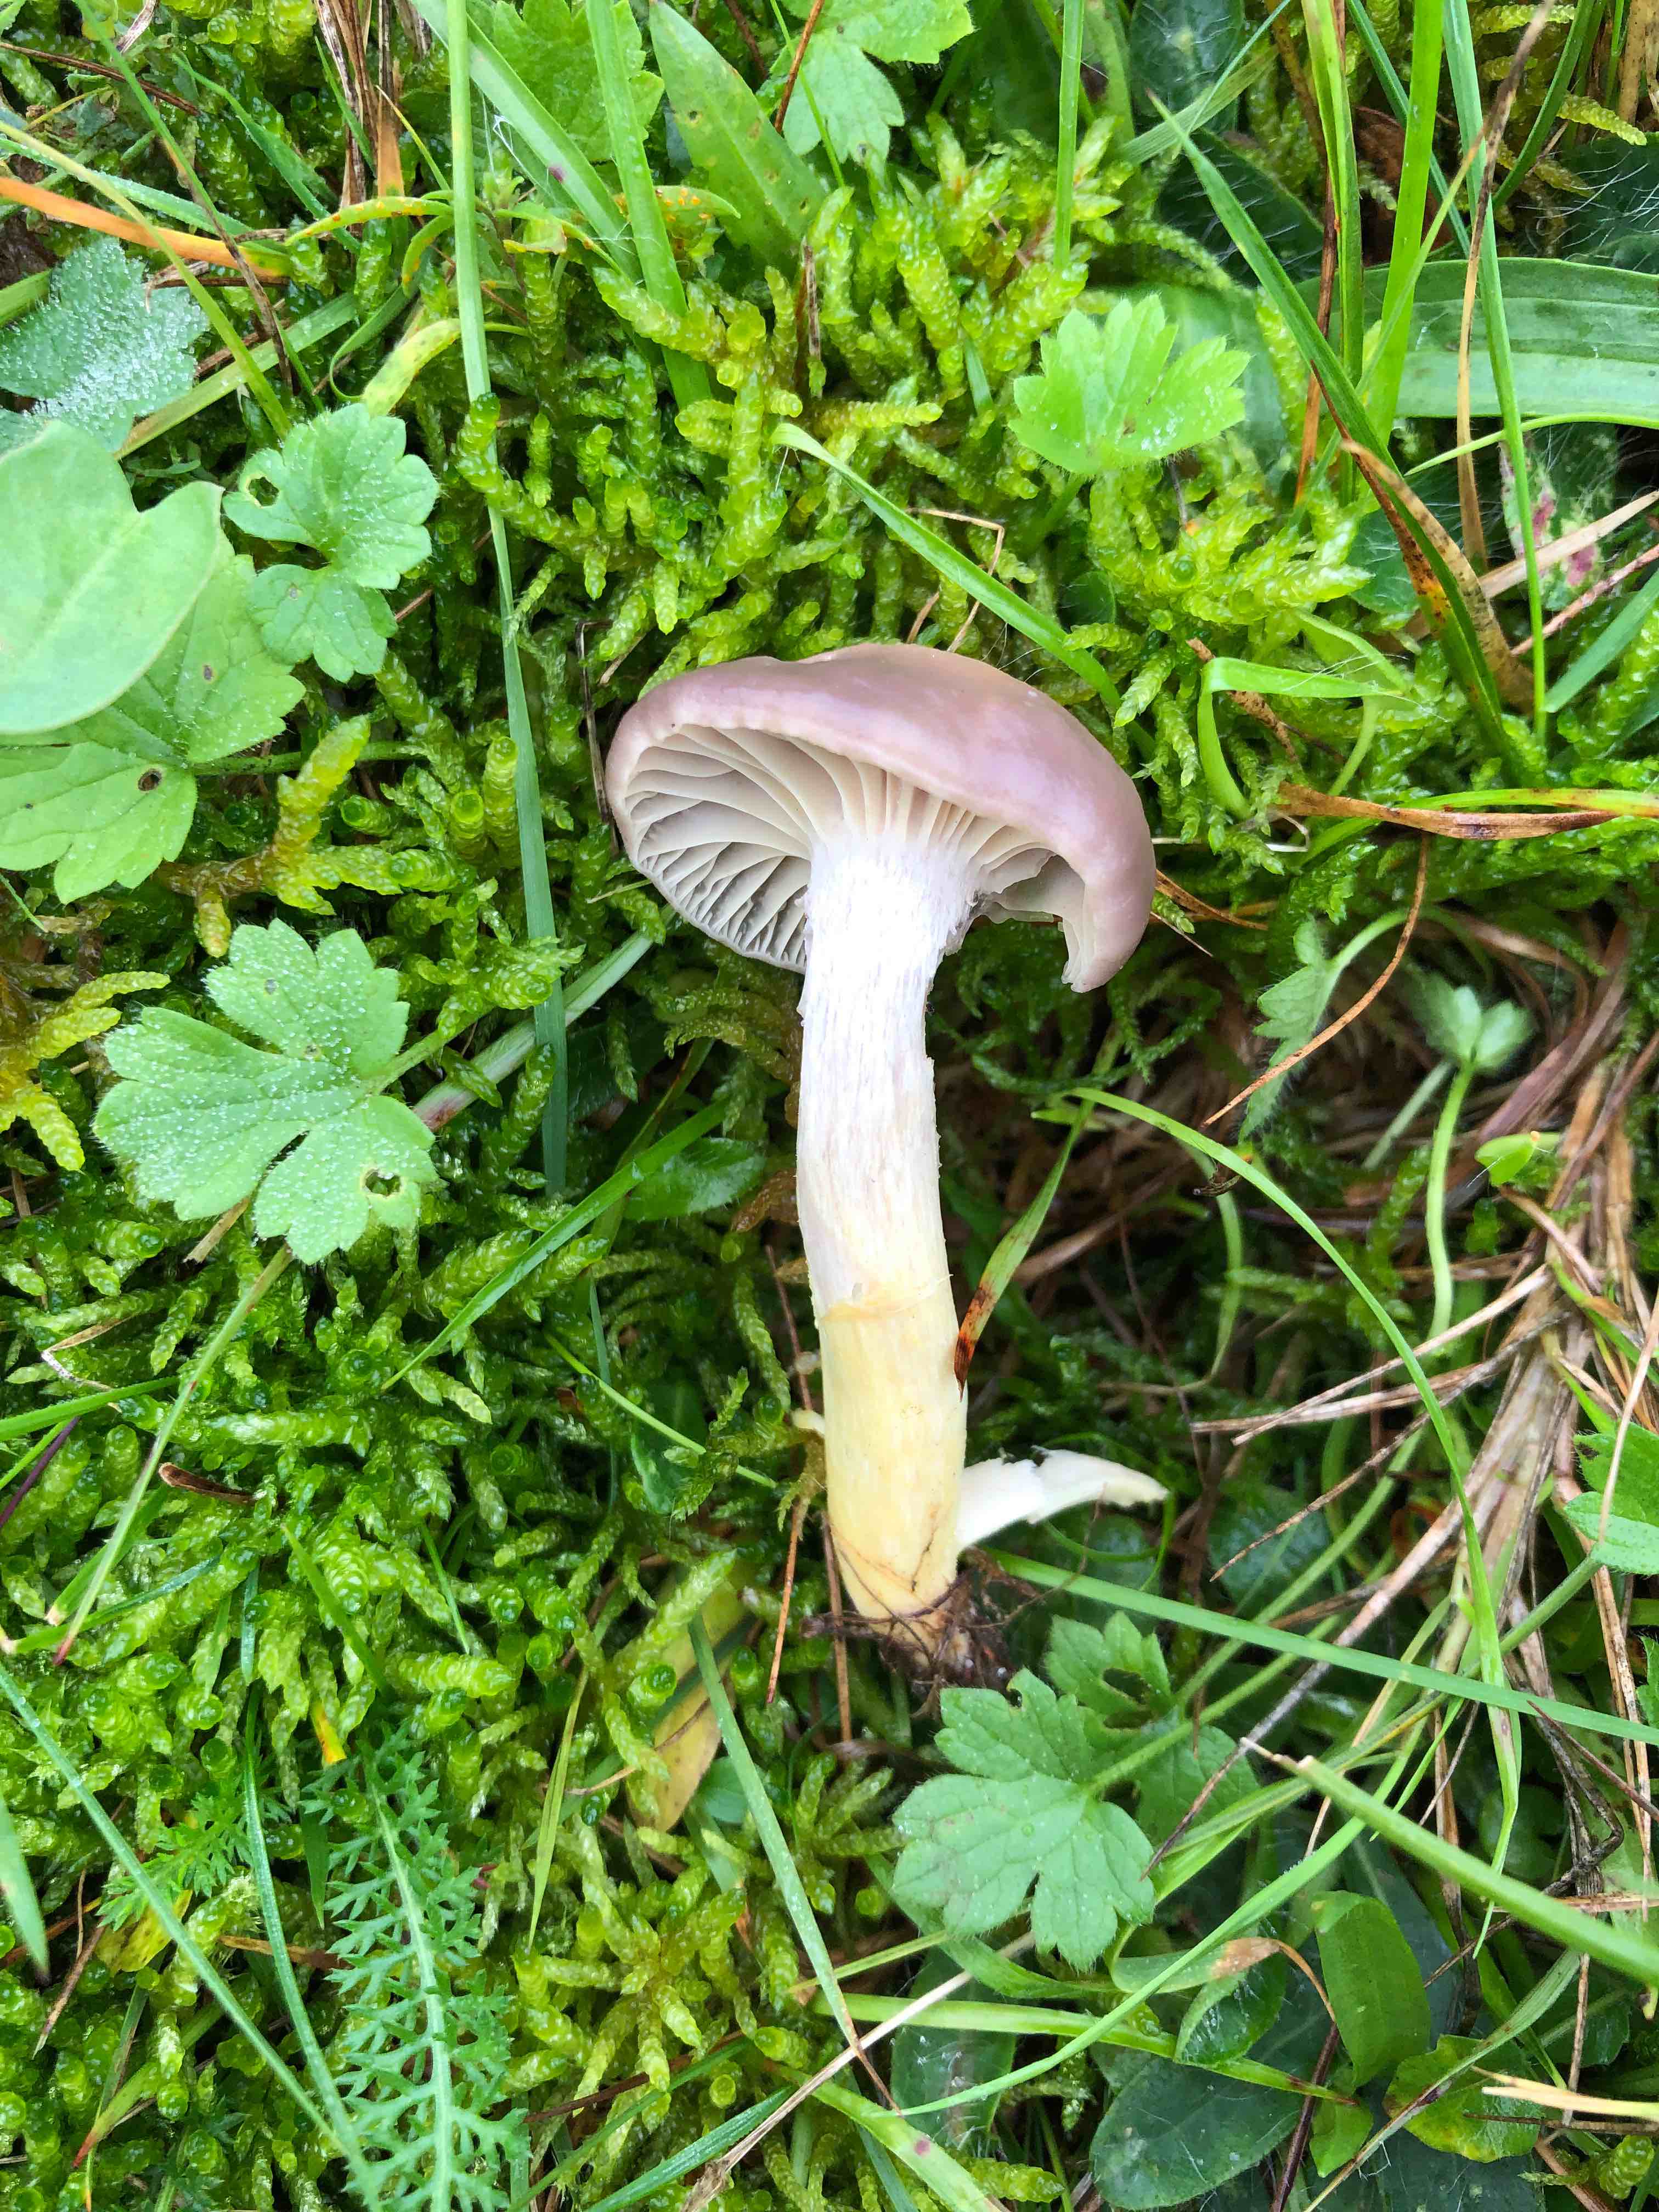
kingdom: Fungi
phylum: Basidiomycota
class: Agaricomycetes
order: Agaricales
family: Hygrophoraceae
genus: Cuphophyllus
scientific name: Cuphophyllus flavipes
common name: gulfodet vokshat
